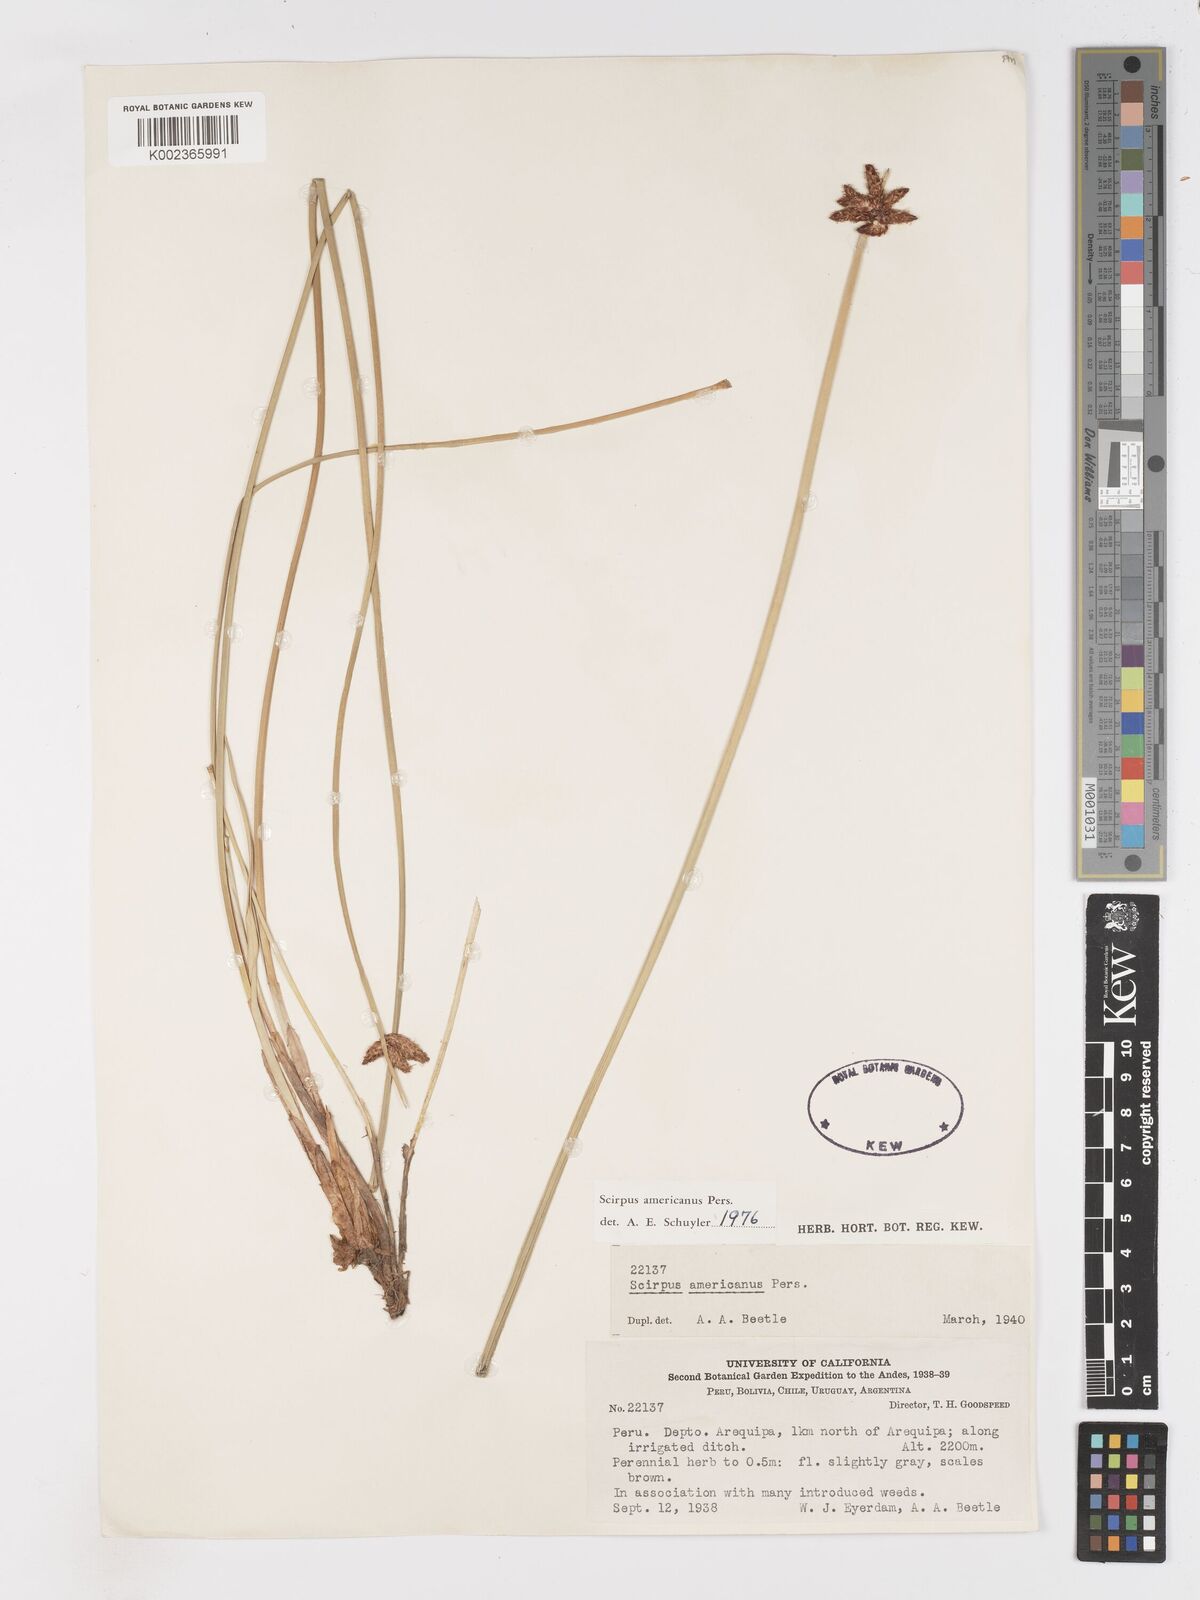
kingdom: Plantae
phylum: Tracheophyta
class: Liliopsida
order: Poales
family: Cyperaceae
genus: Schoenoplectus
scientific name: Schoenoplectus americanus
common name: American three-square bulrush
